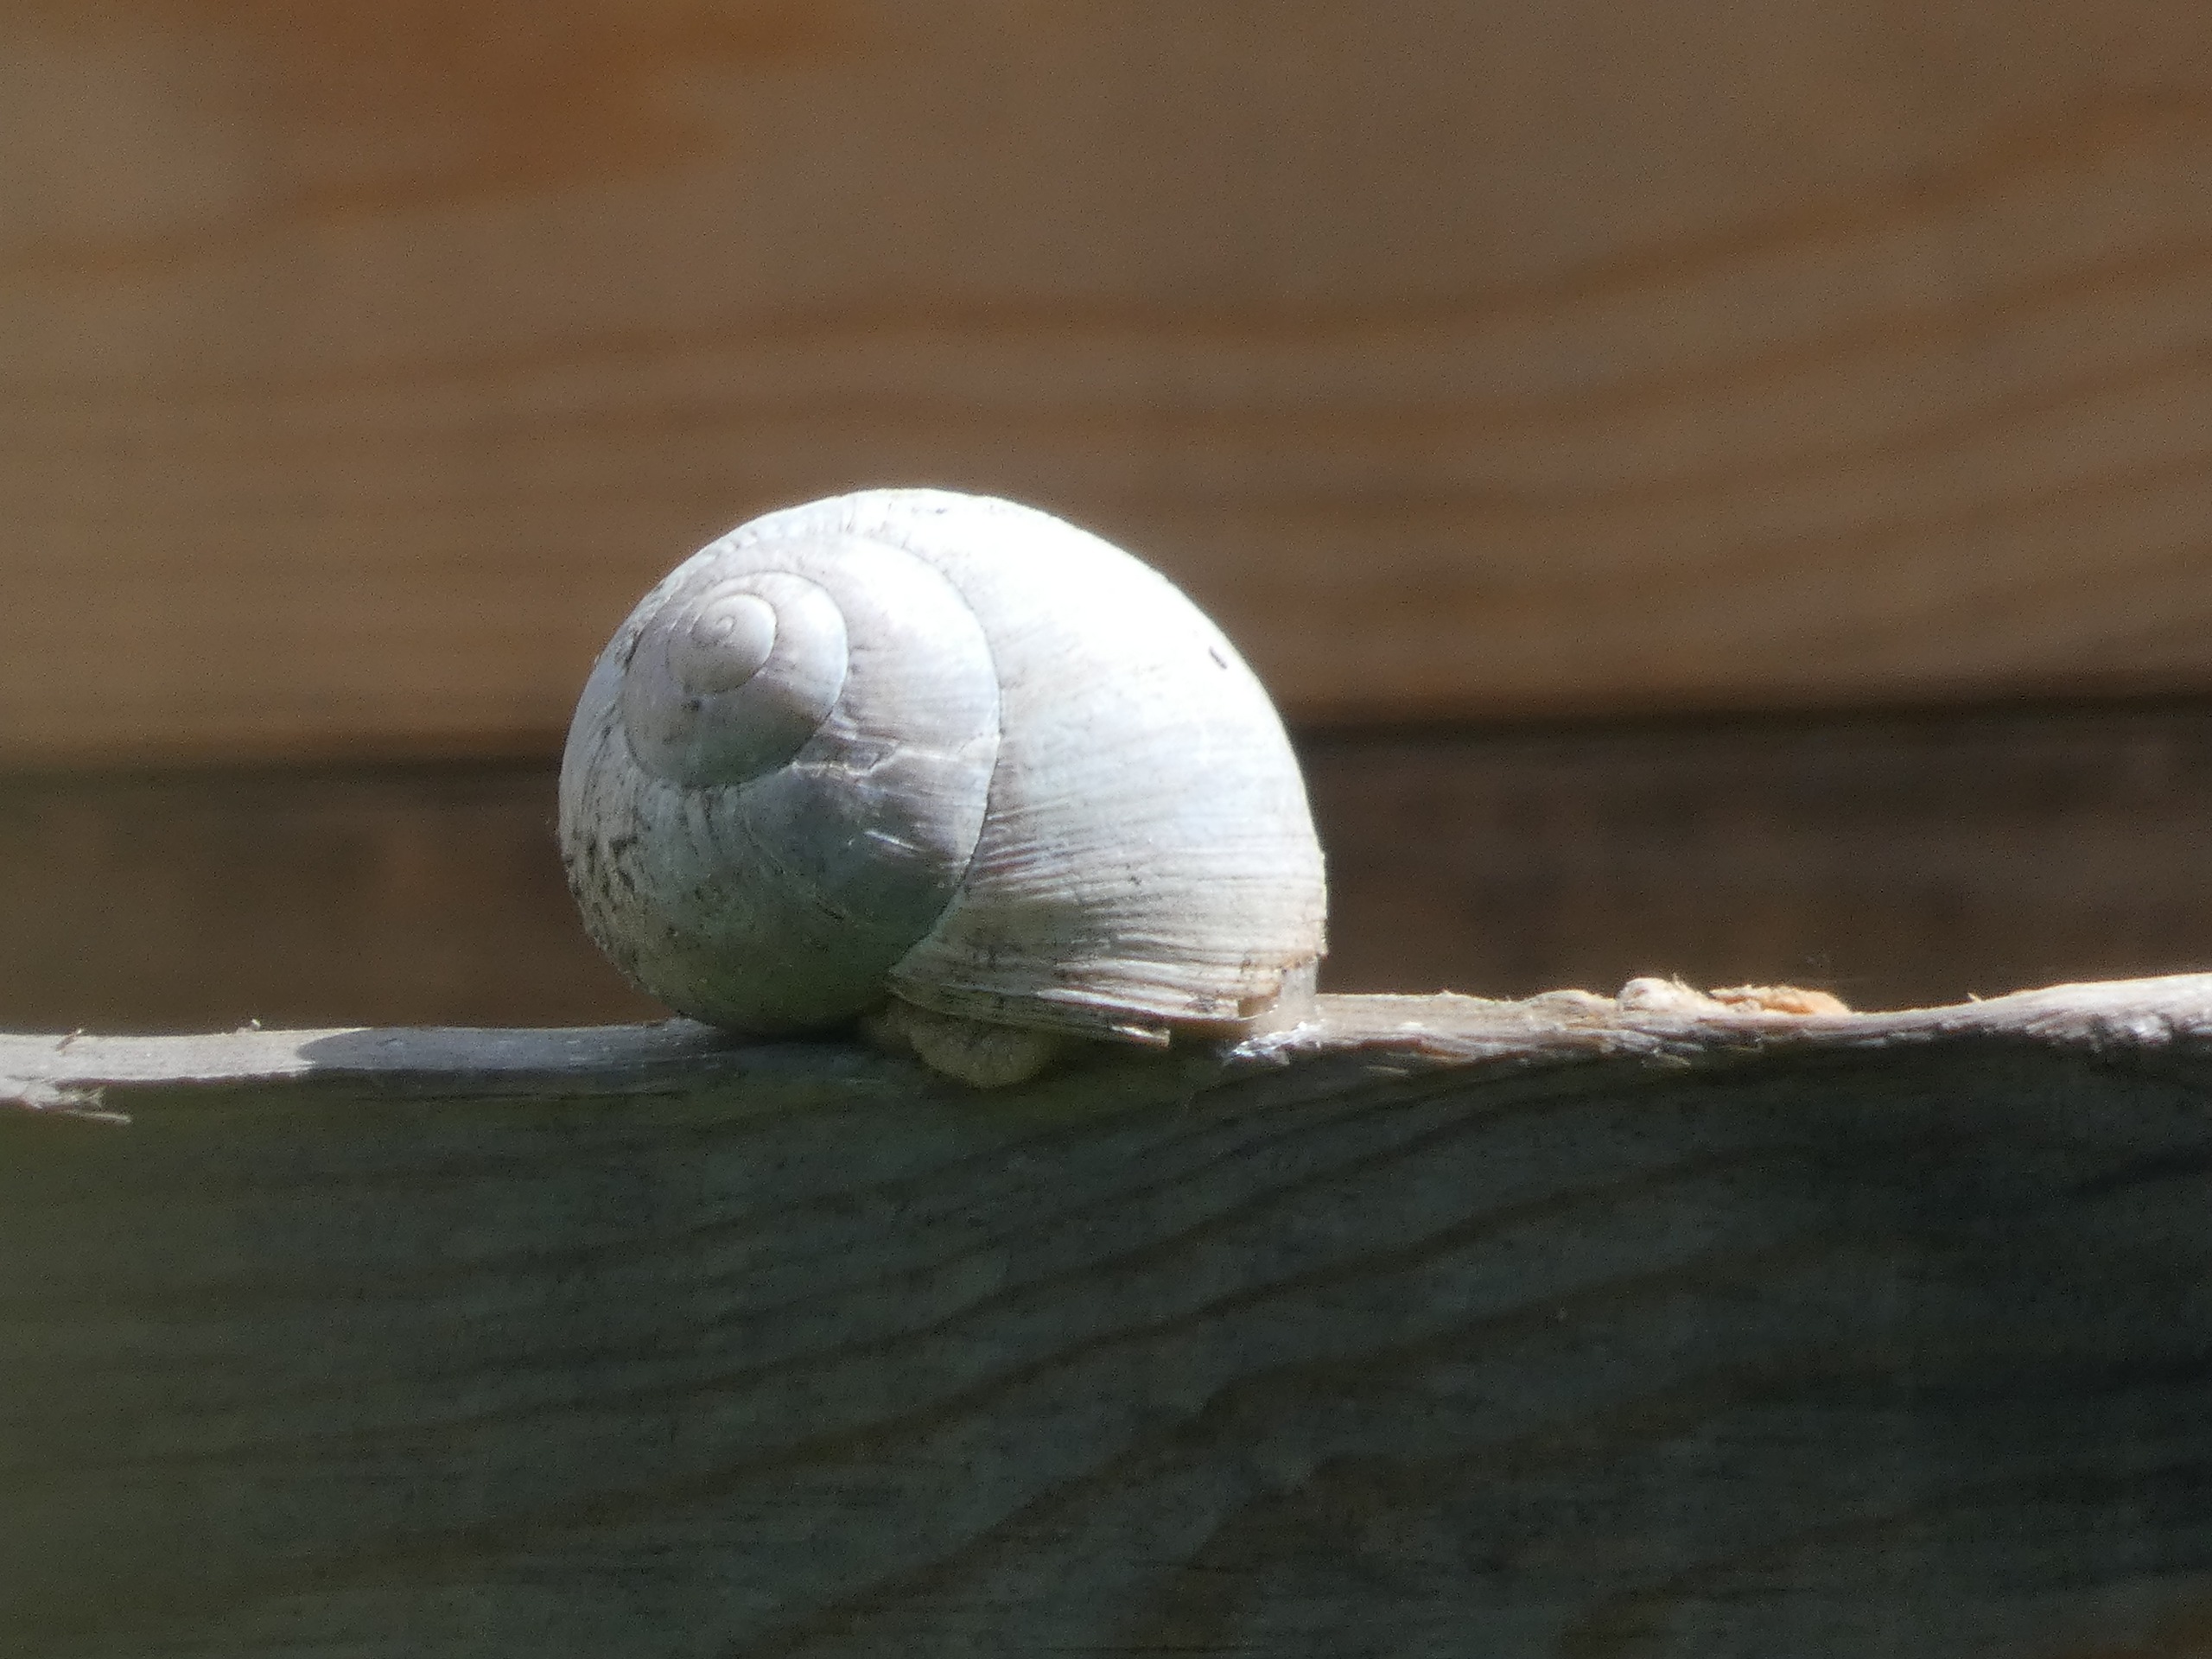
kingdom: Animalia
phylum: Mollusca
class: Gastropoda
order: Stylommatophora
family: Helicidae
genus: Helix
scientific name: Helix pomatia
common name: Vinbjergsnegl
